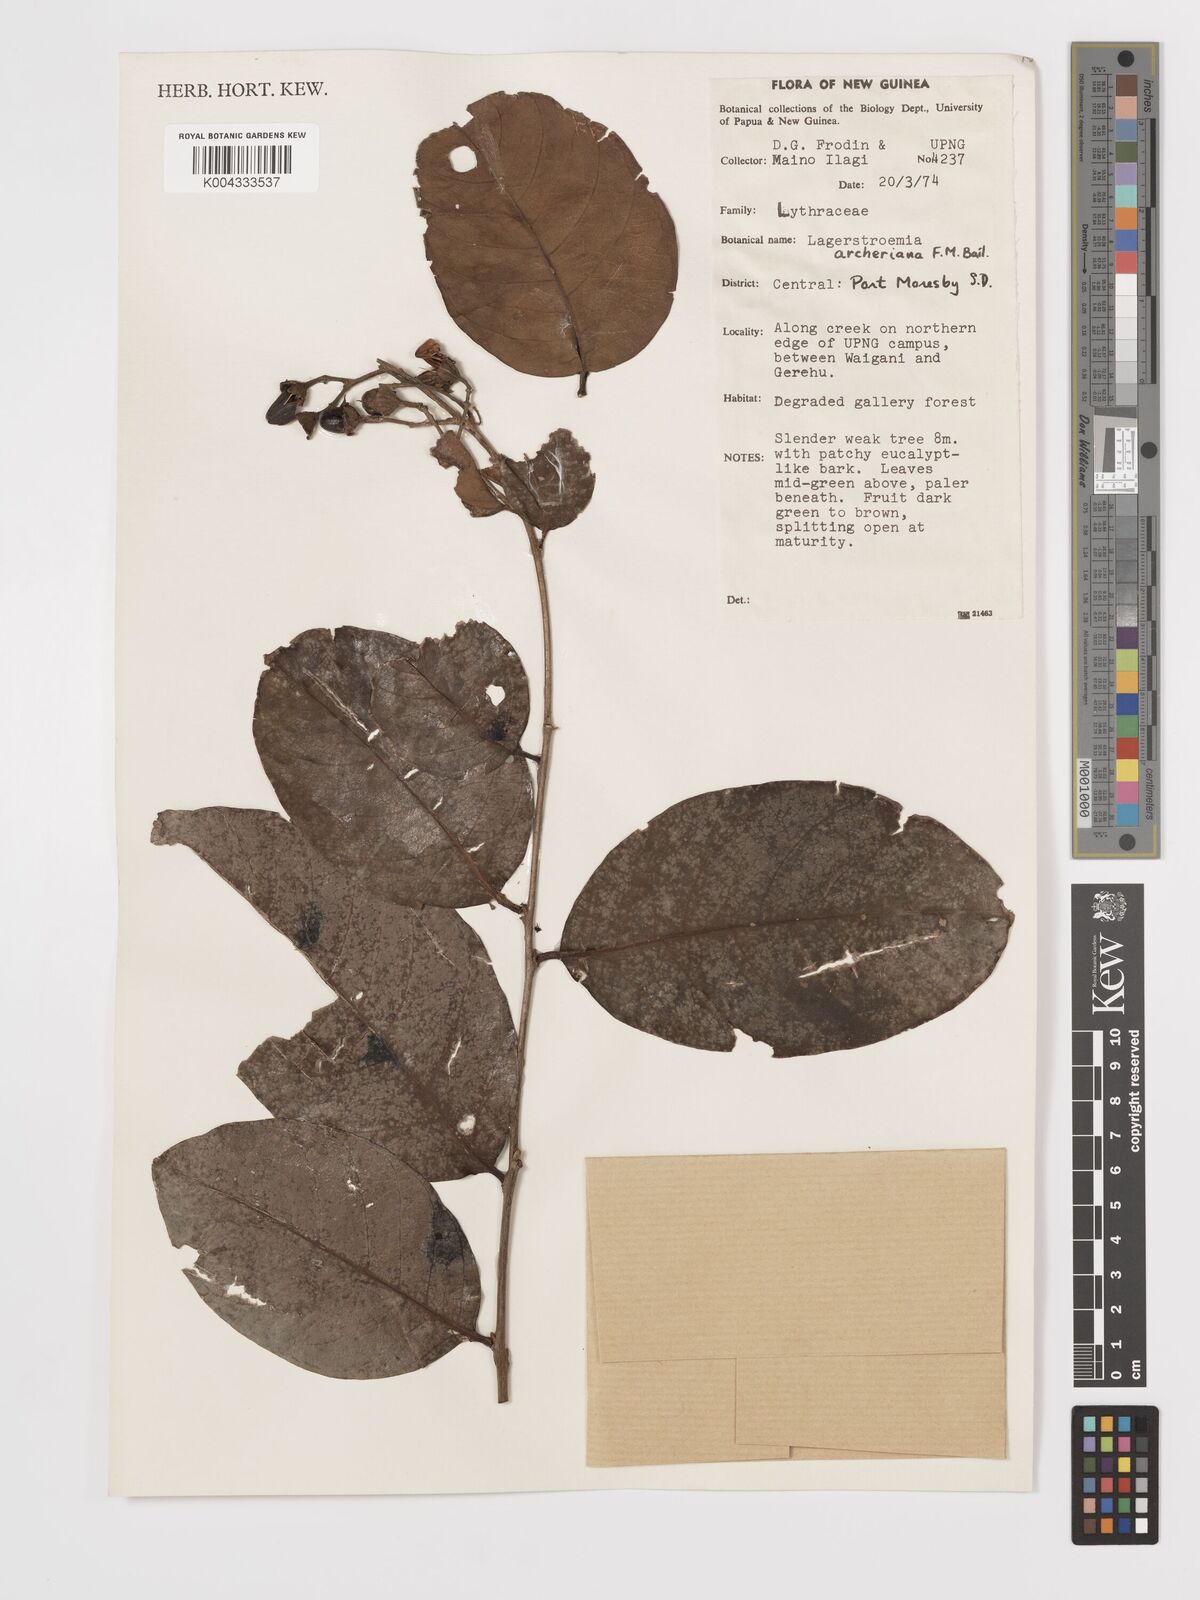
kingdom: Plantae
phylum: Tracheophyta
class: Magnoliopsida
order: Myrtales
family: Lythraceae
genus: Lagerstroemia
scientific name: Lagerstroemia engleriana
